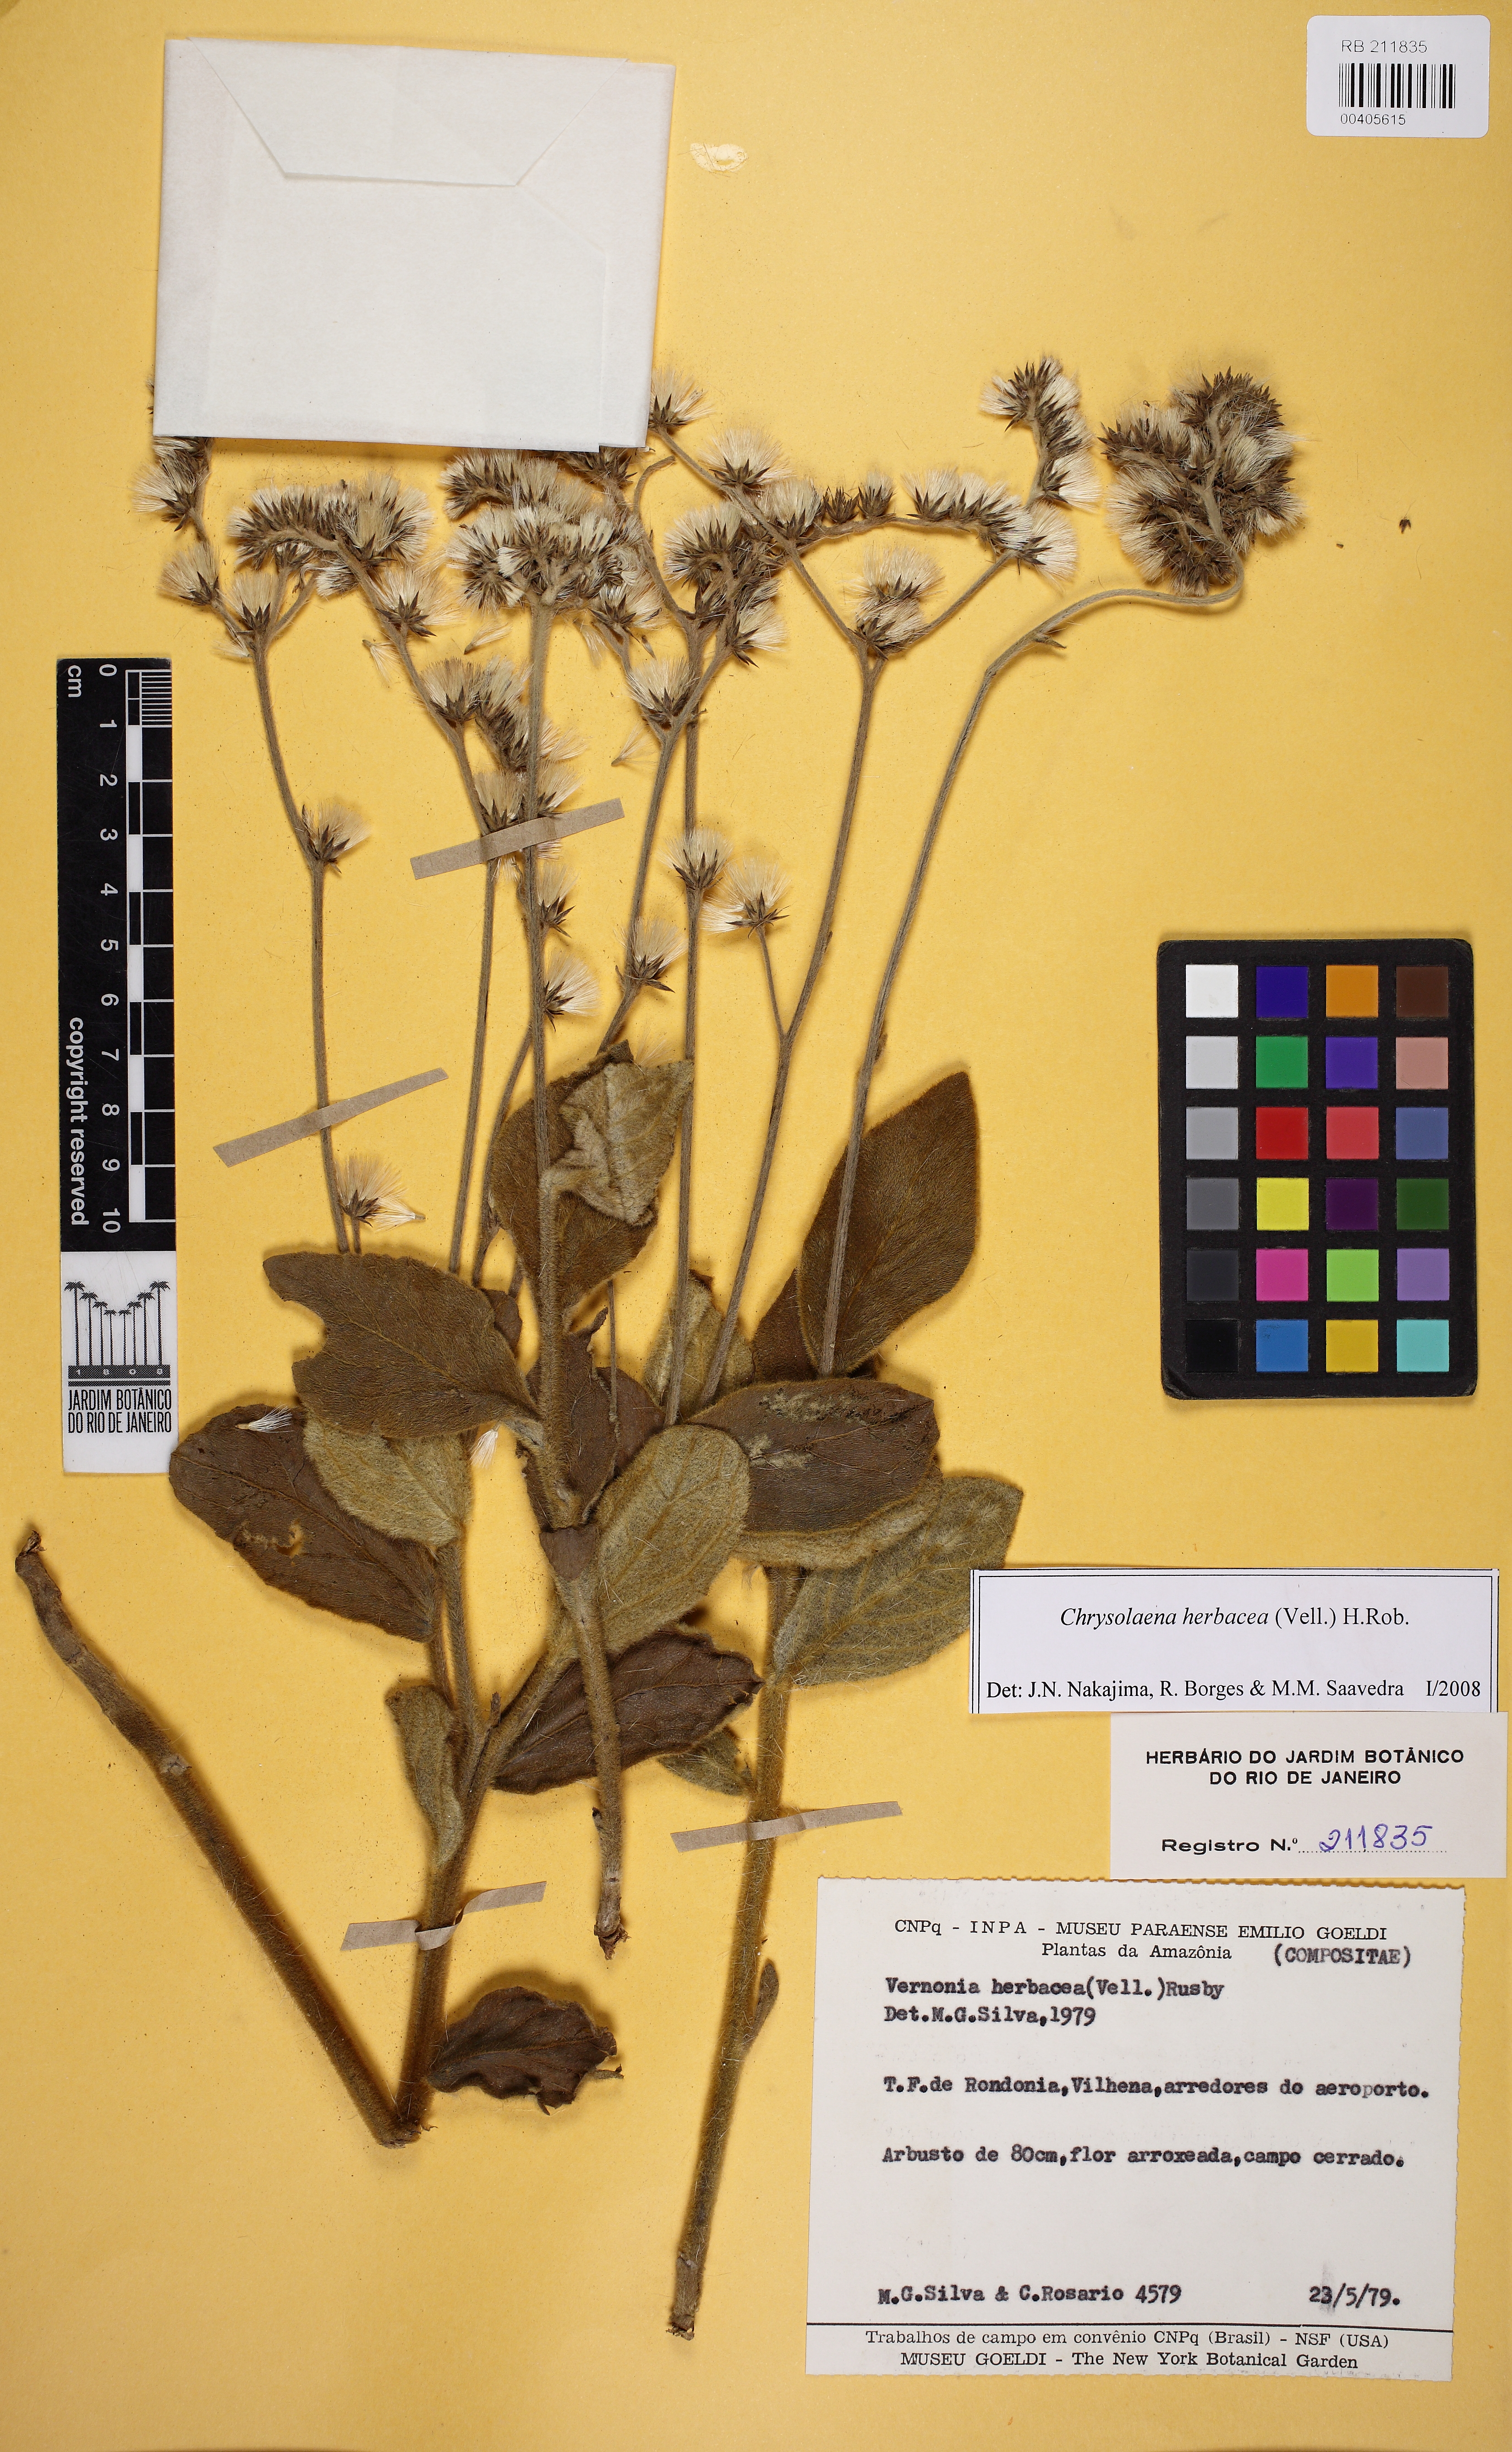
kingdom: Plantae
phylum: Tracheophyta
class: Magnoliopsida
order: Asterales
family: Asteraceae
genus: Chrysolaena
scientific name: Chrysolaena obovata
